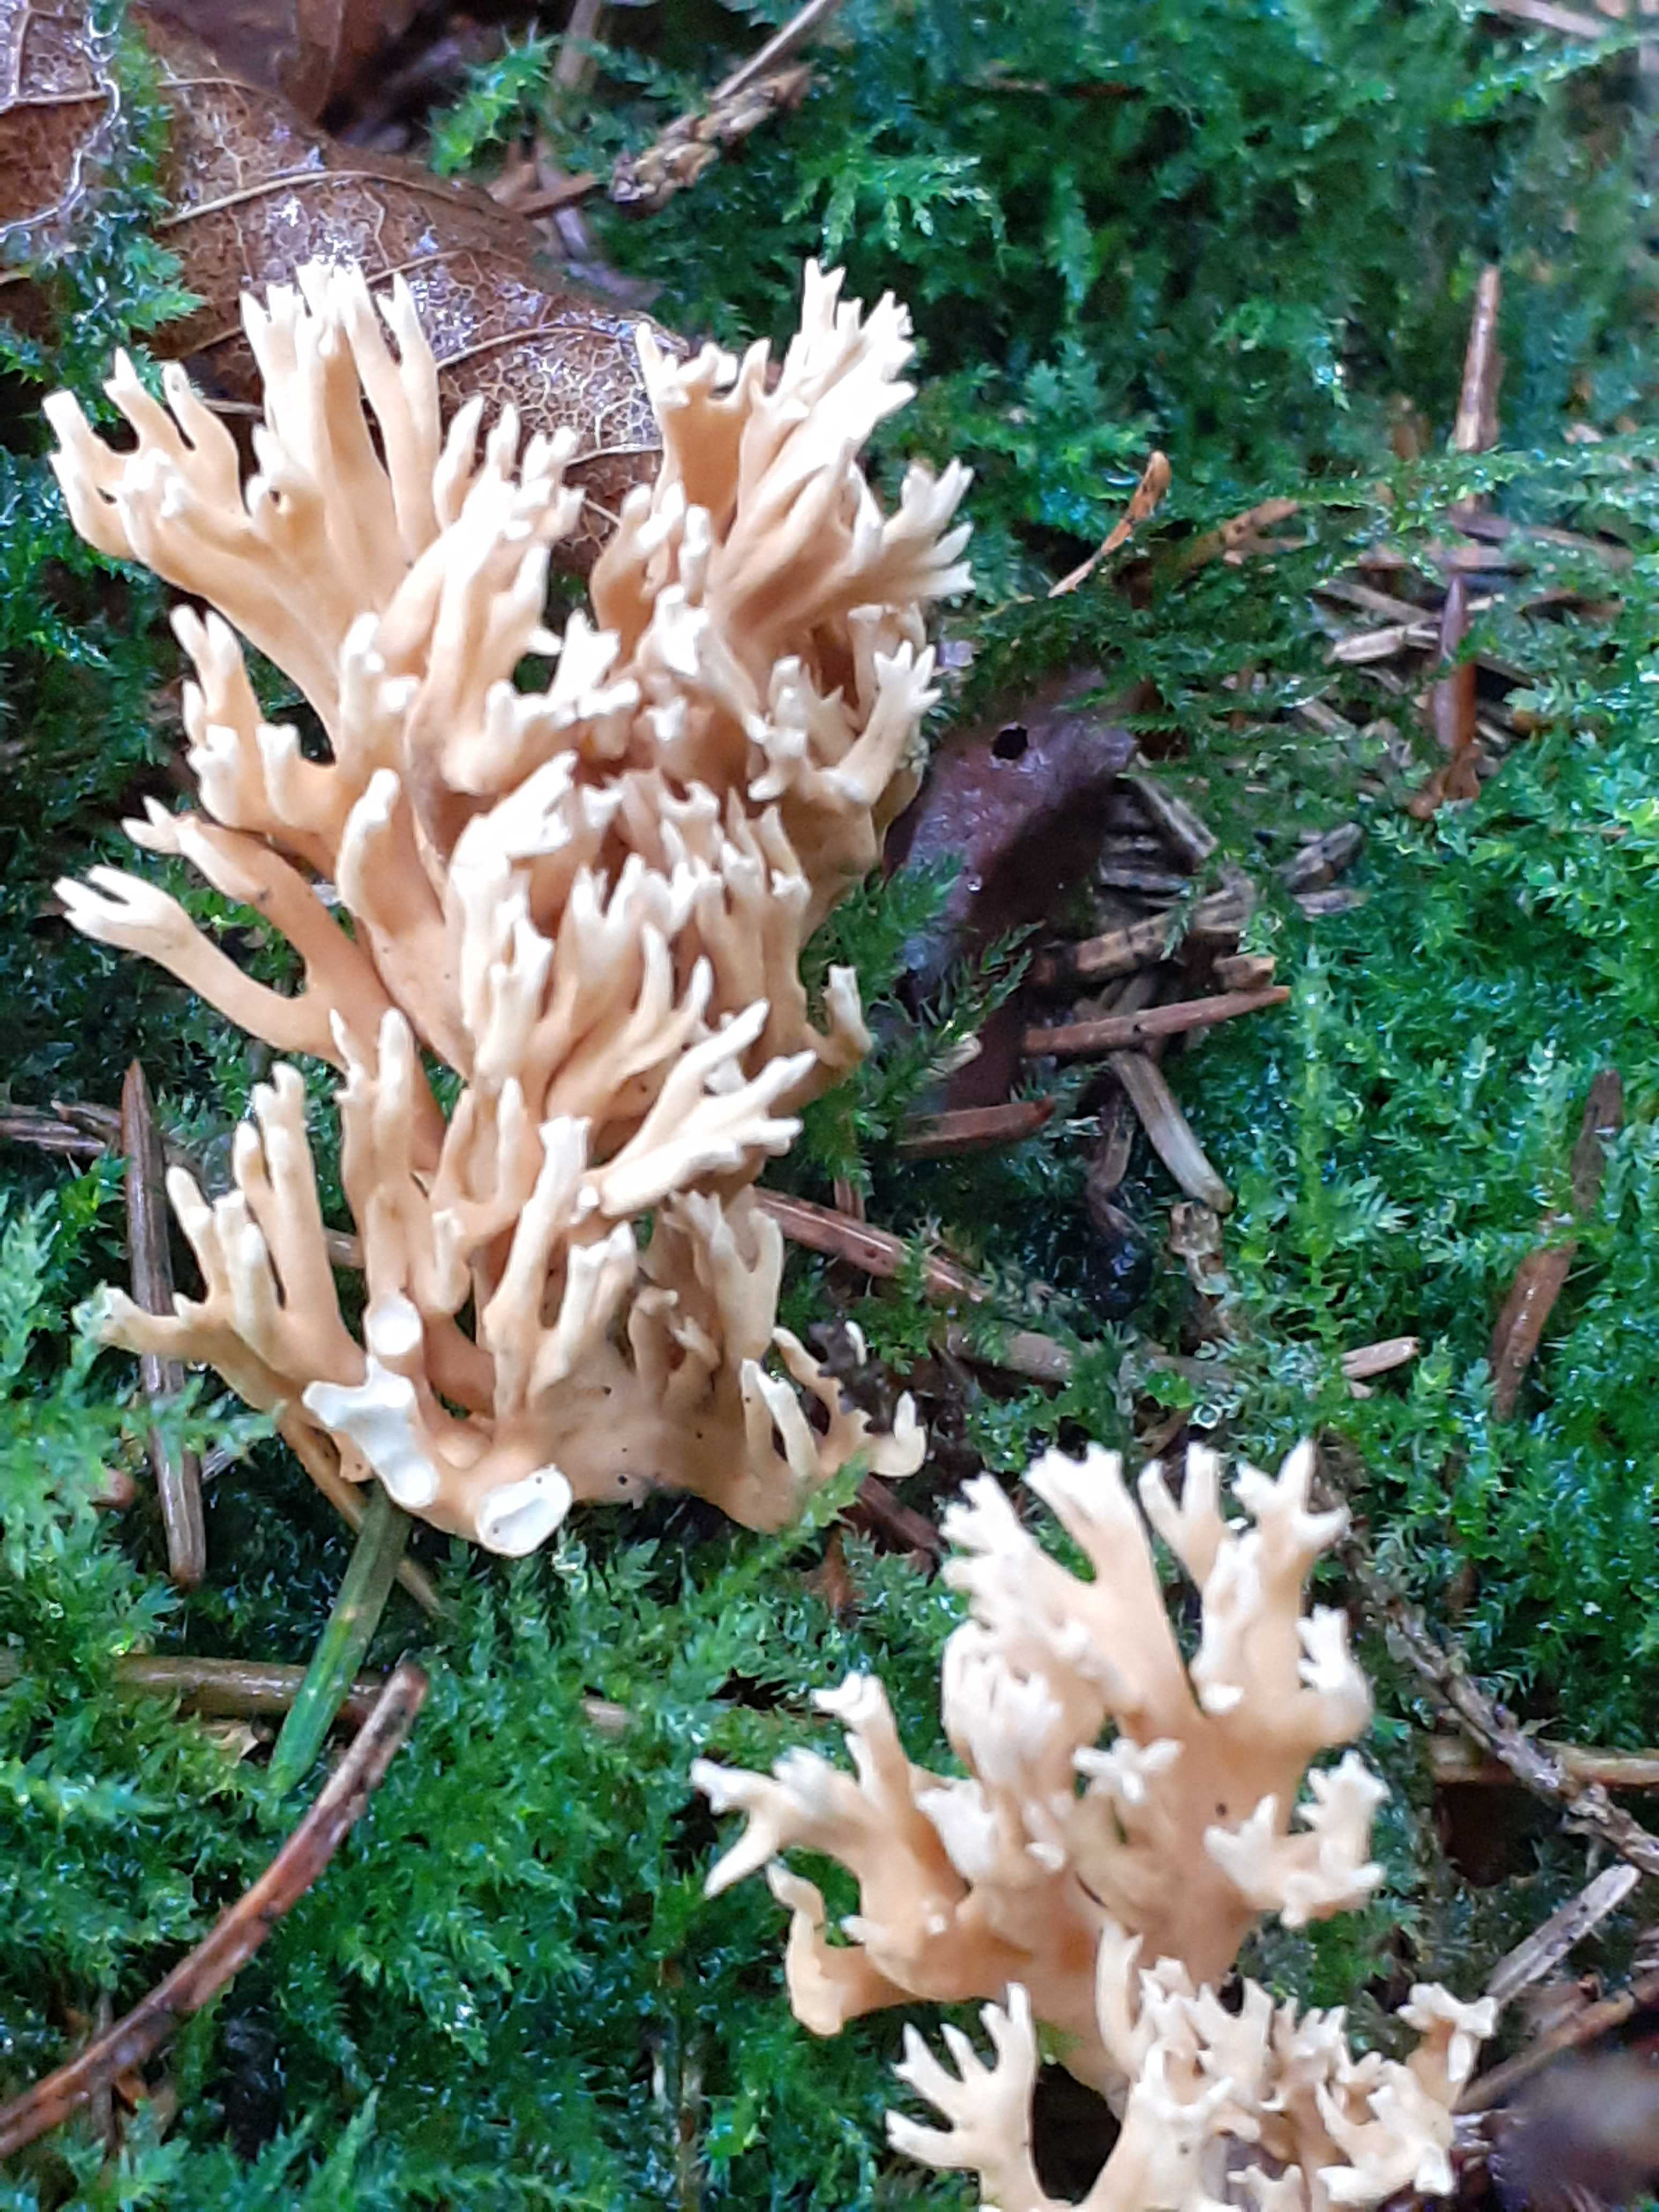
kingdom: Fungi
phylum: Basidiomycota
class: Agaricomycetes
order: Gomphales
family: Gomphaceae
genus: Phaeoclavulina
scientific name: Phaeoclavulina eumorpha
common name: gran-koralsvamp
